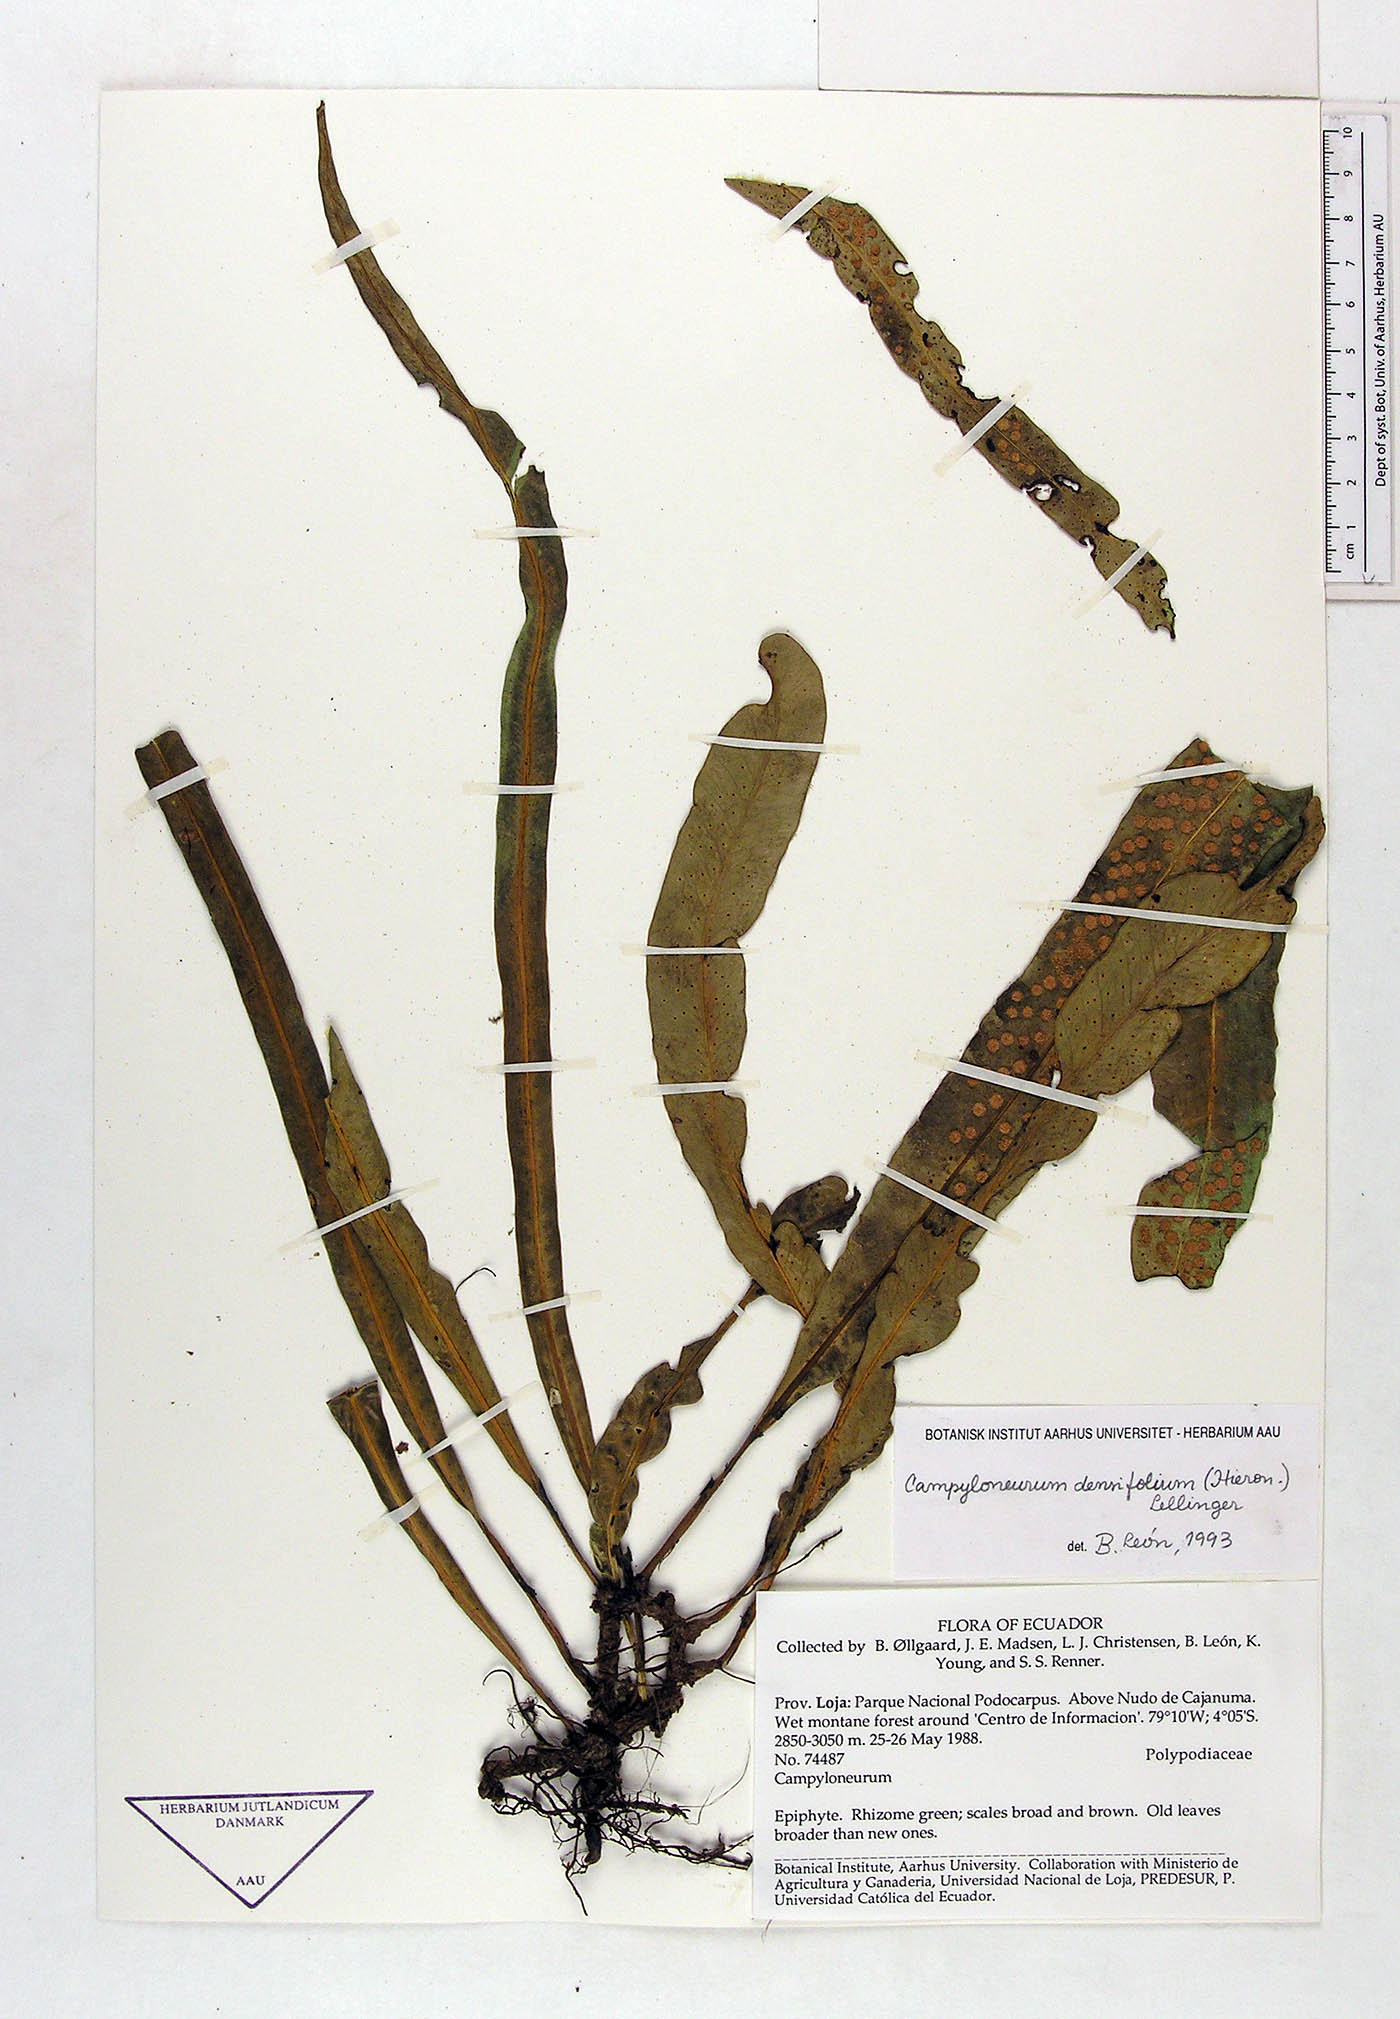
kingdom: Plantae
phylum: Tracheophyta
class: Polypodiopsida
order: Polypodiales
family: Polypodiaceae
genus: Campyloneurum
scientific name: Campyloneurum densifolium
